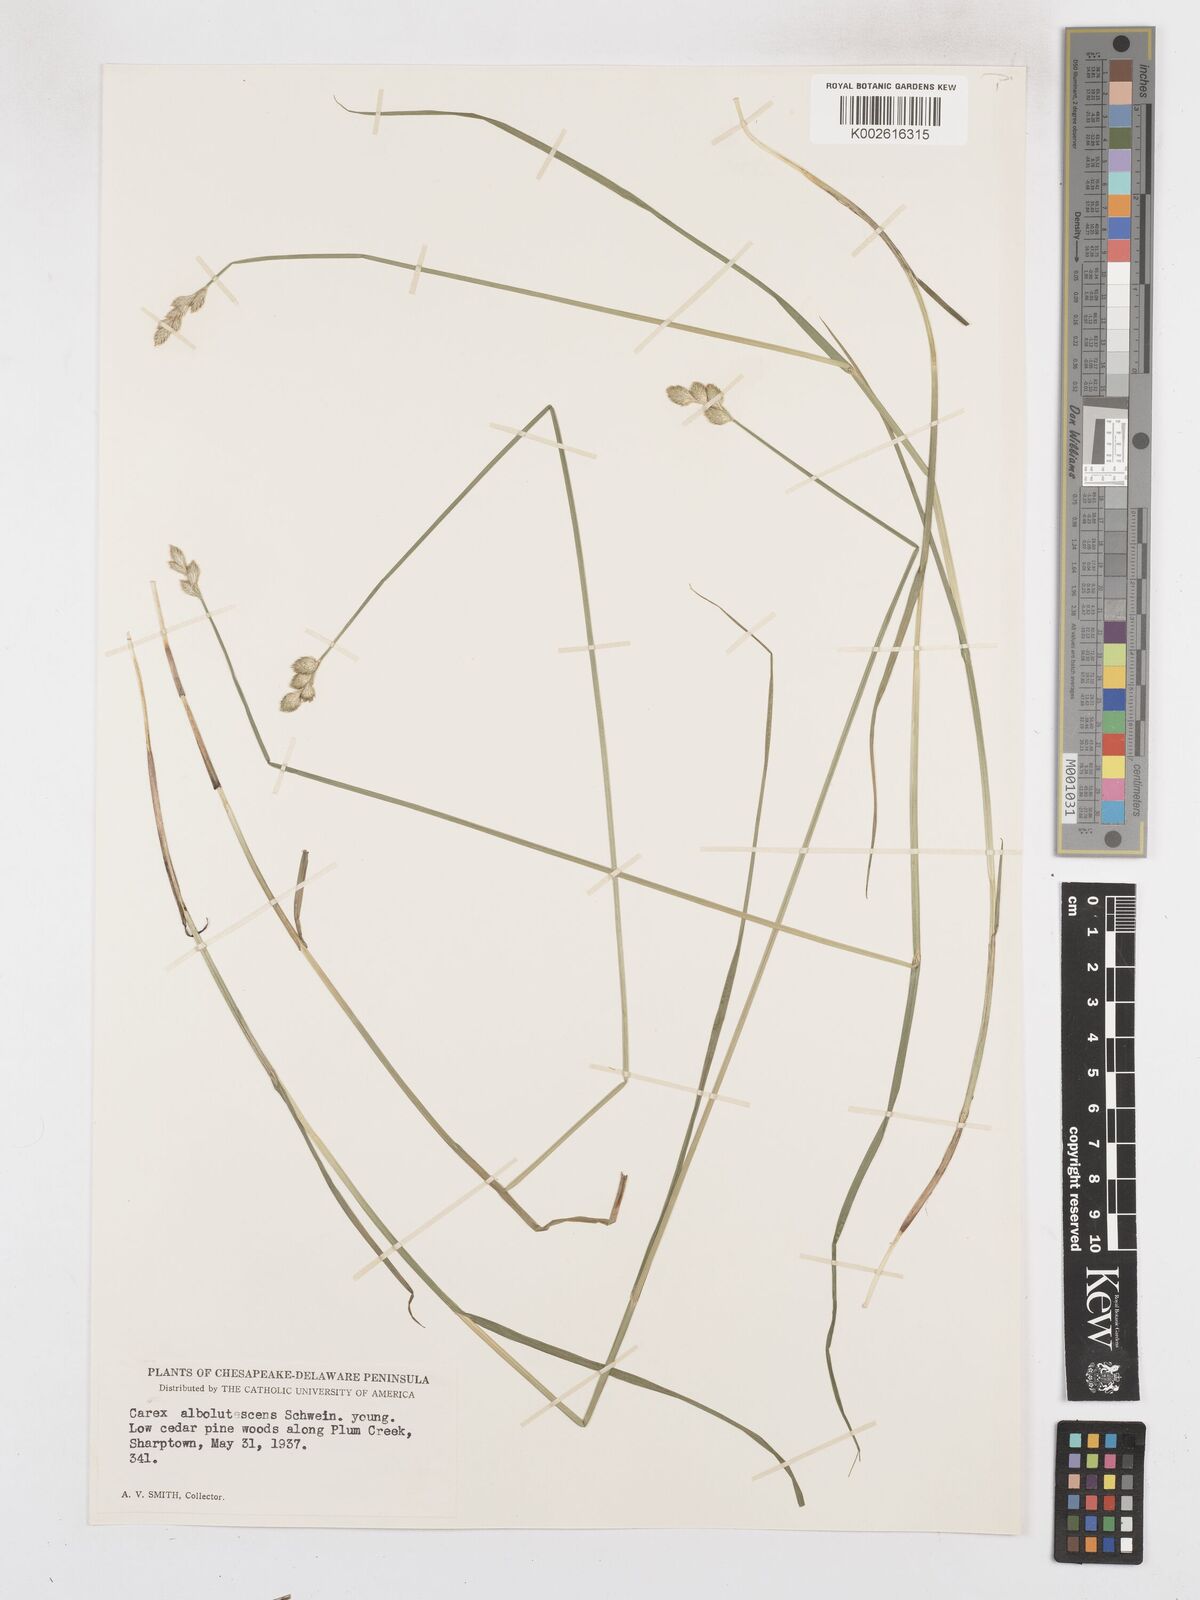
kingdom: Plantae
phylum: Tracheophyta
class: Liliopsida
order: Poales
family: Cyperaceae
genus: Carex
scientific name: Carex albolutescens
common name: Freenish white sedge
